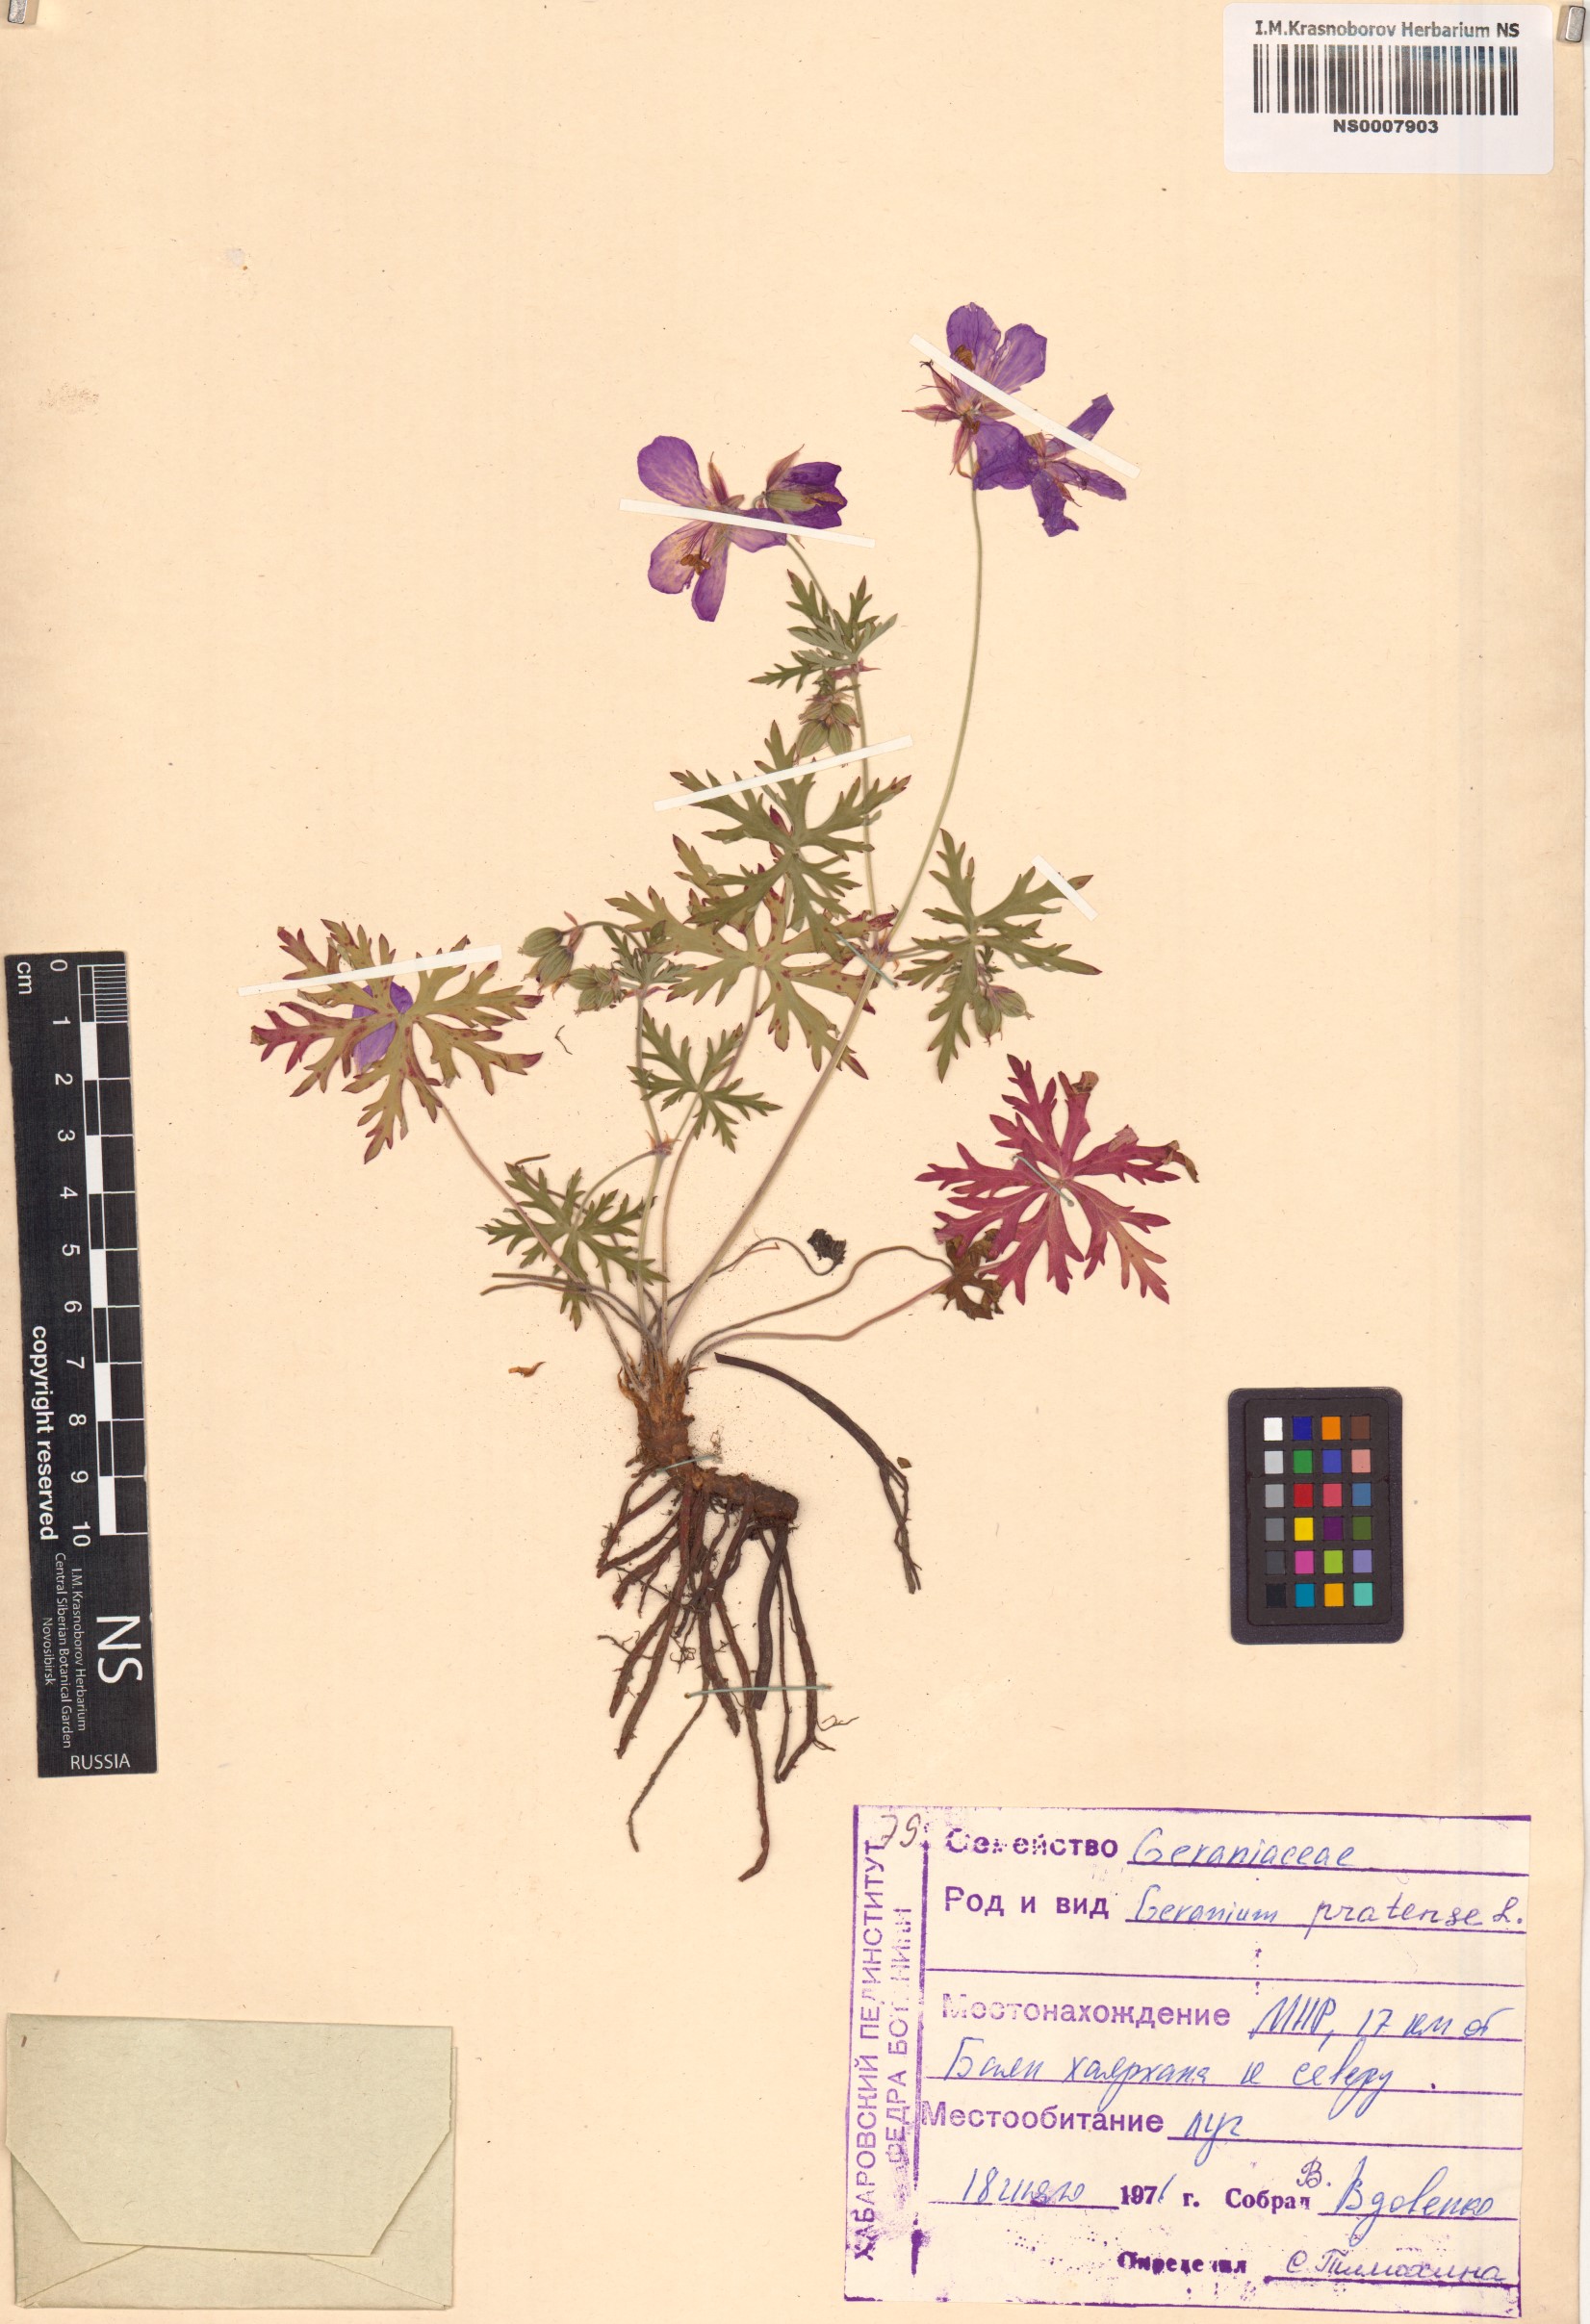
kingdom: Plantae
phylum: Tracheophyta
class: Magnoliopsida
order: Geraniales
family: Geraniaceae
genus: Geranium
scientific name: Geranium pratense
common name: Meadow crane's-bill
